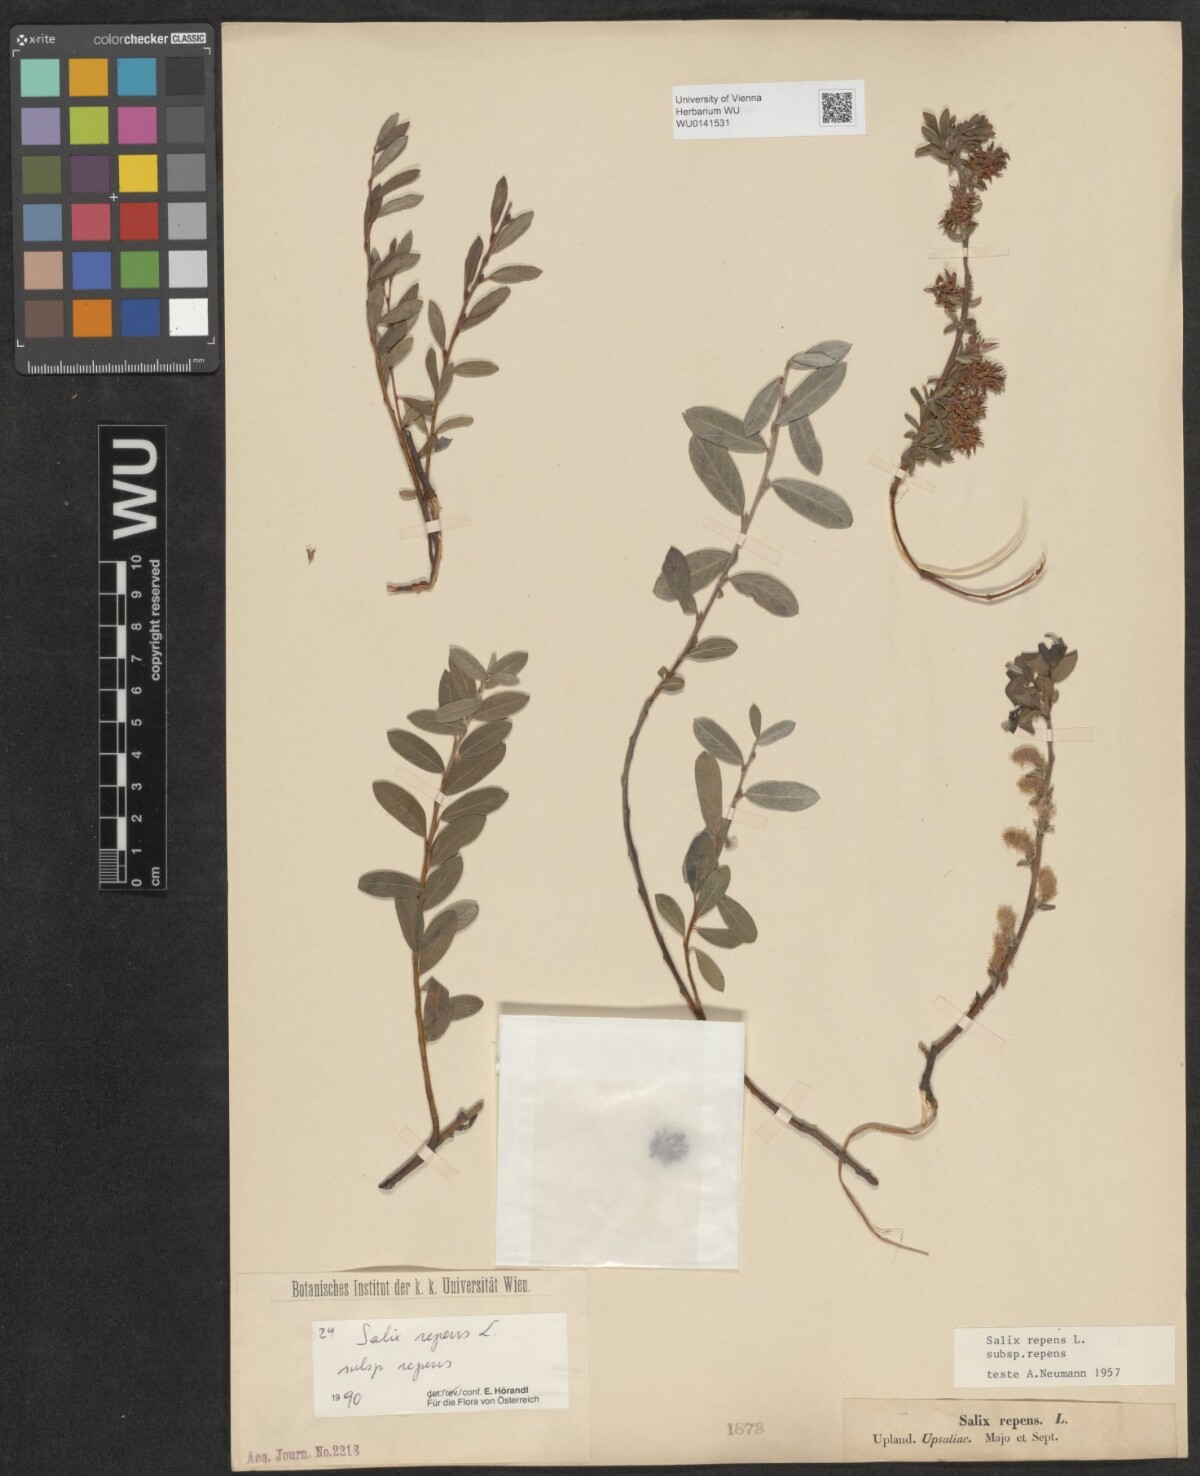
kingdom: Plantae
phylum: Tracheophyta
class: Magnoliopsida
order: Malpighiales
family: Salicaceae
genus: Salix
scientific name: Salix repens
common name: Creeping willow
